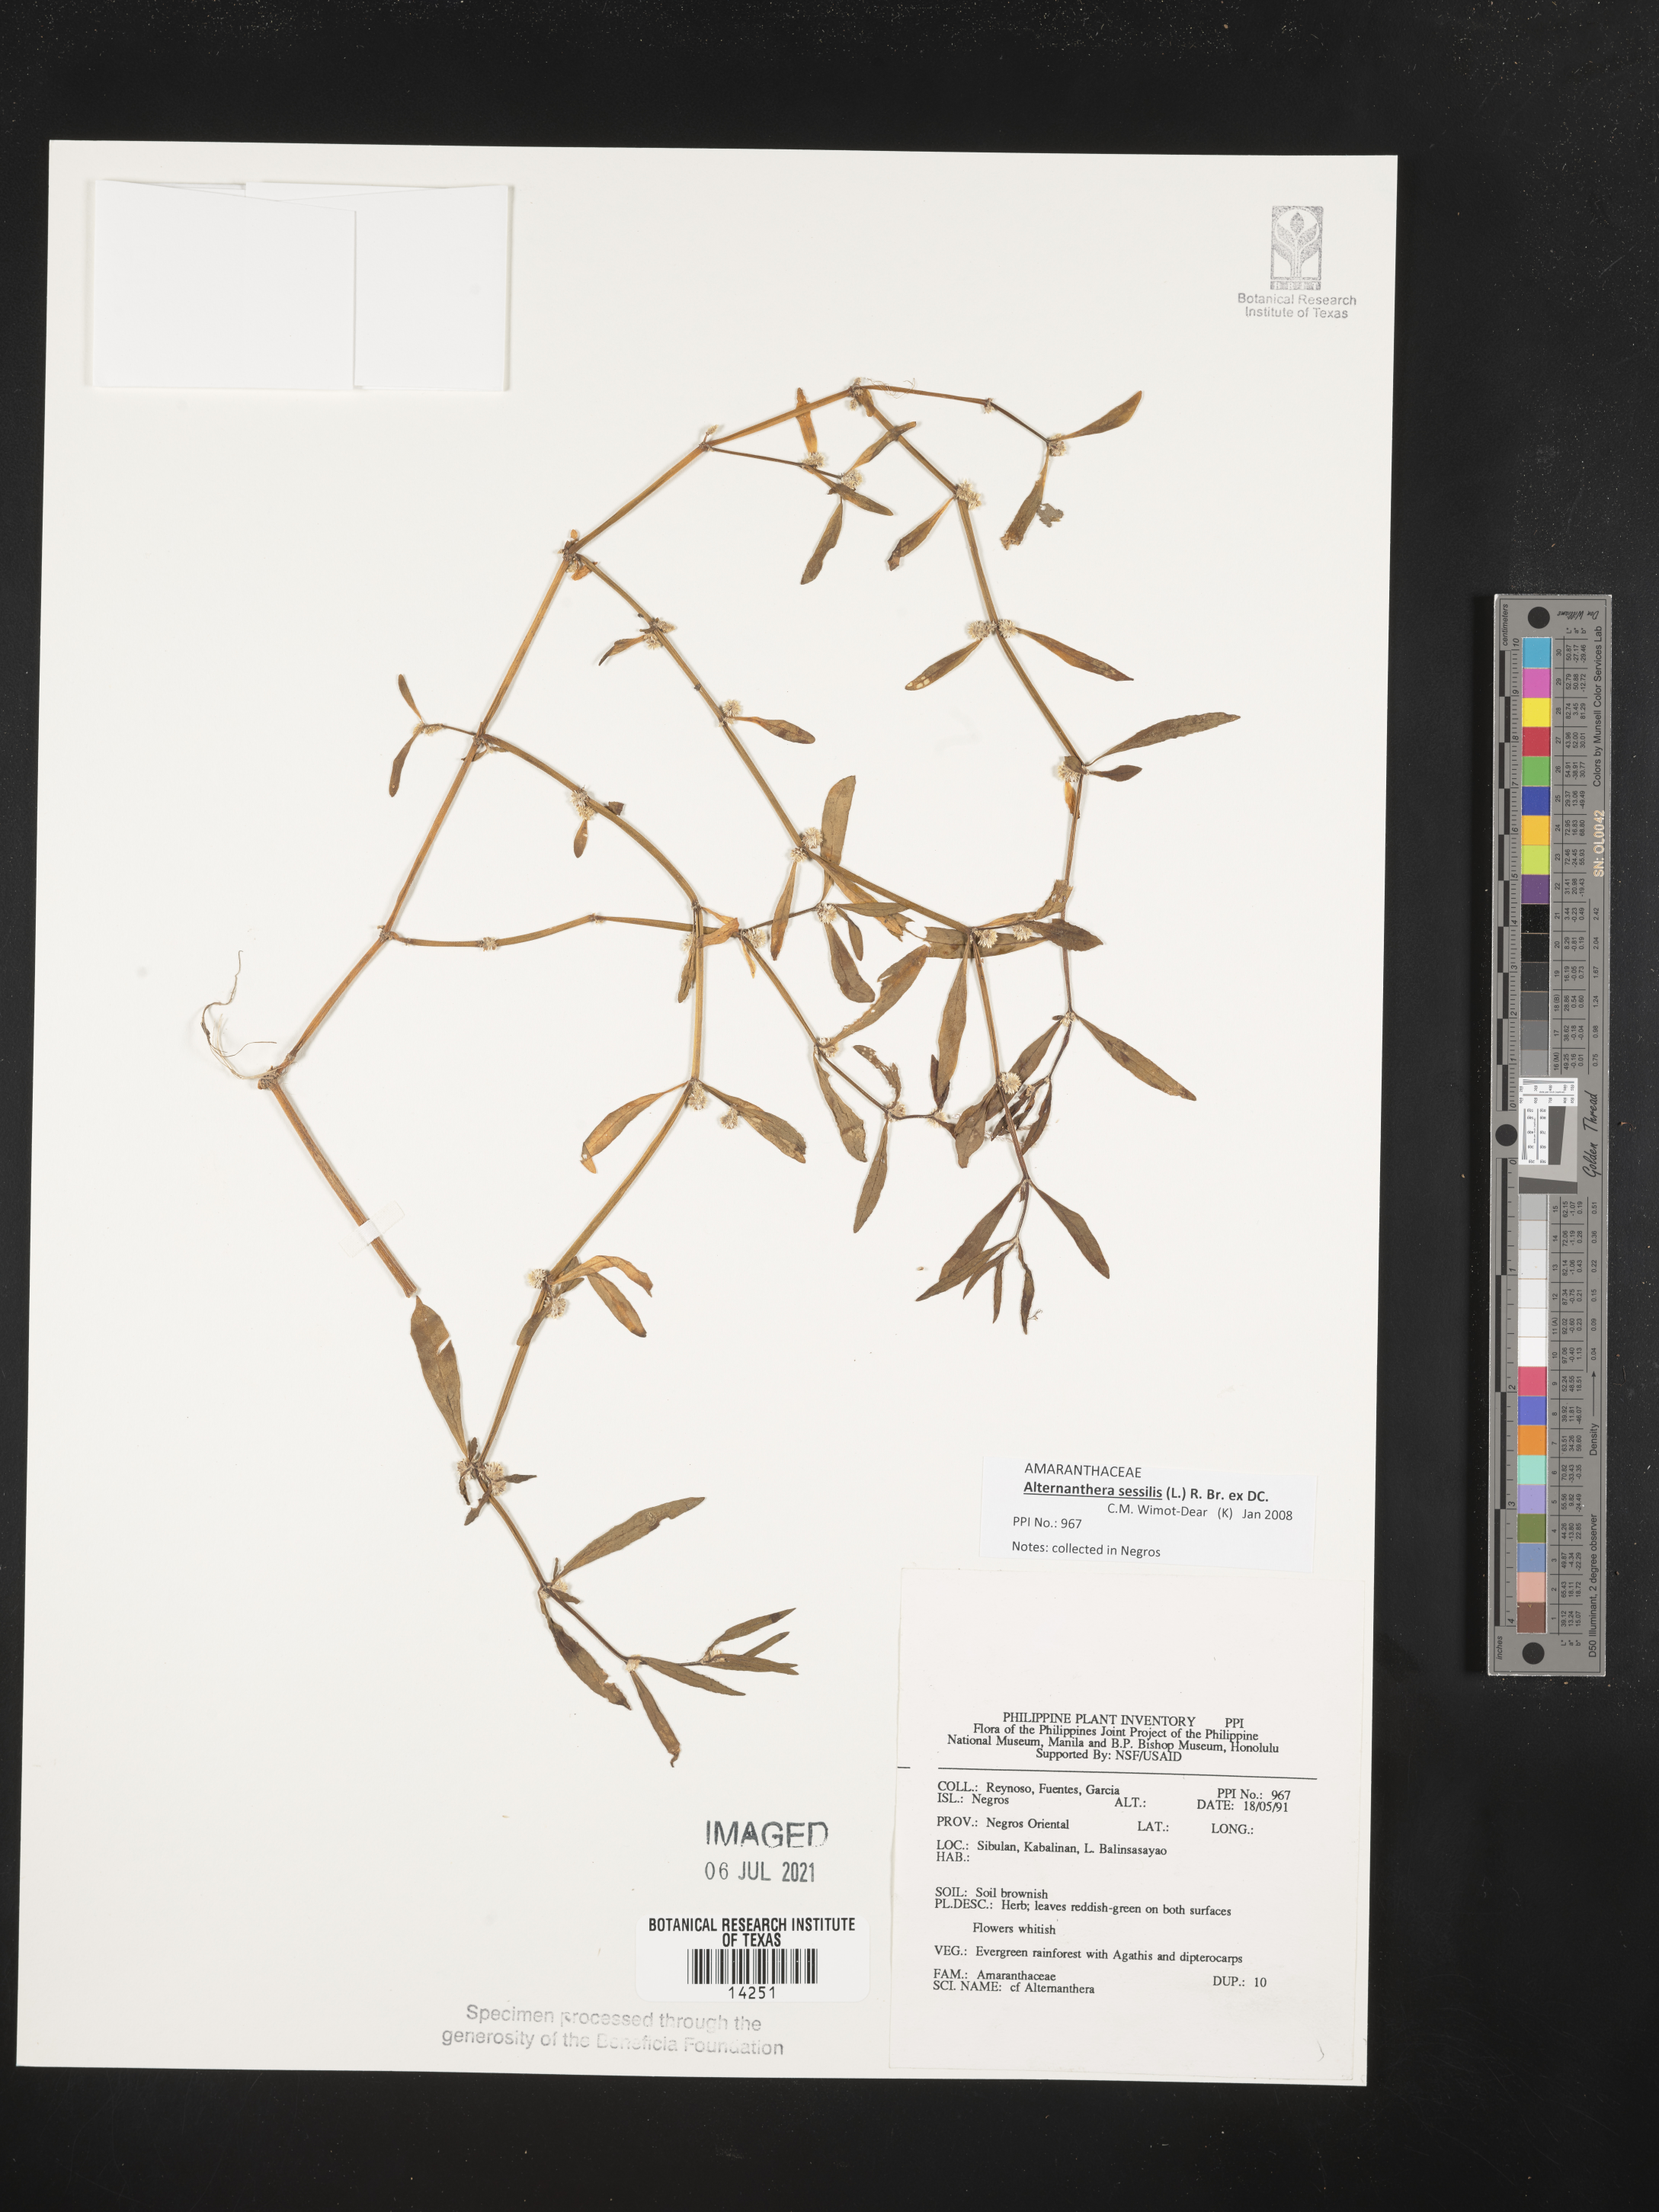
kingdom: Plantae
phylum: Tracheophyta
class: Magnoliopsida
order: Caryophyllales
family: Amaranthaceae
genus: Alternanthera
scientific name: Alternanthera sessilis
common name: Sessile joyweed
